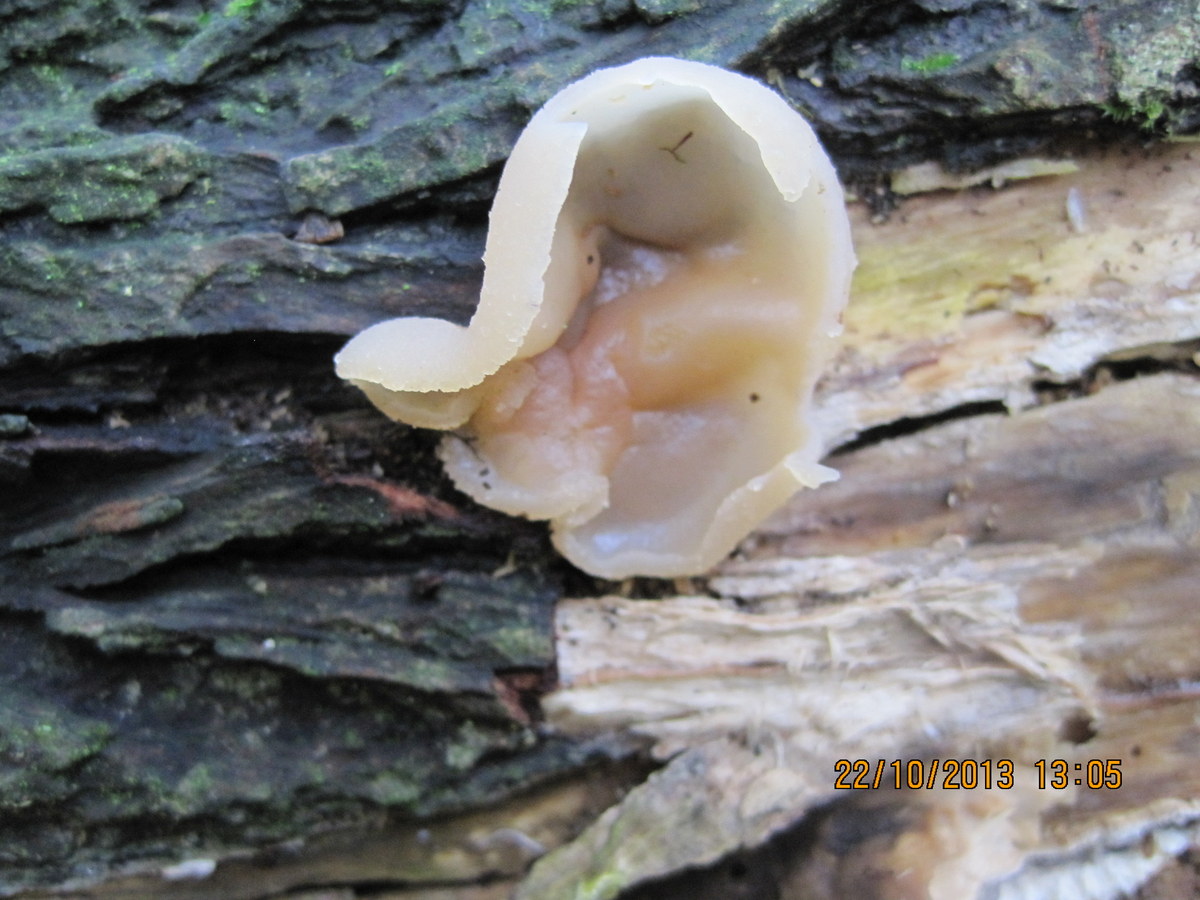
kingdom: Fungi
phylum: Ascomycota
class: Pezizomycetes
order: Pezizales
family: Pezizaceae
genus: Peziza
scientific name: Peziza varia
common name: Ved-bægersvamp
